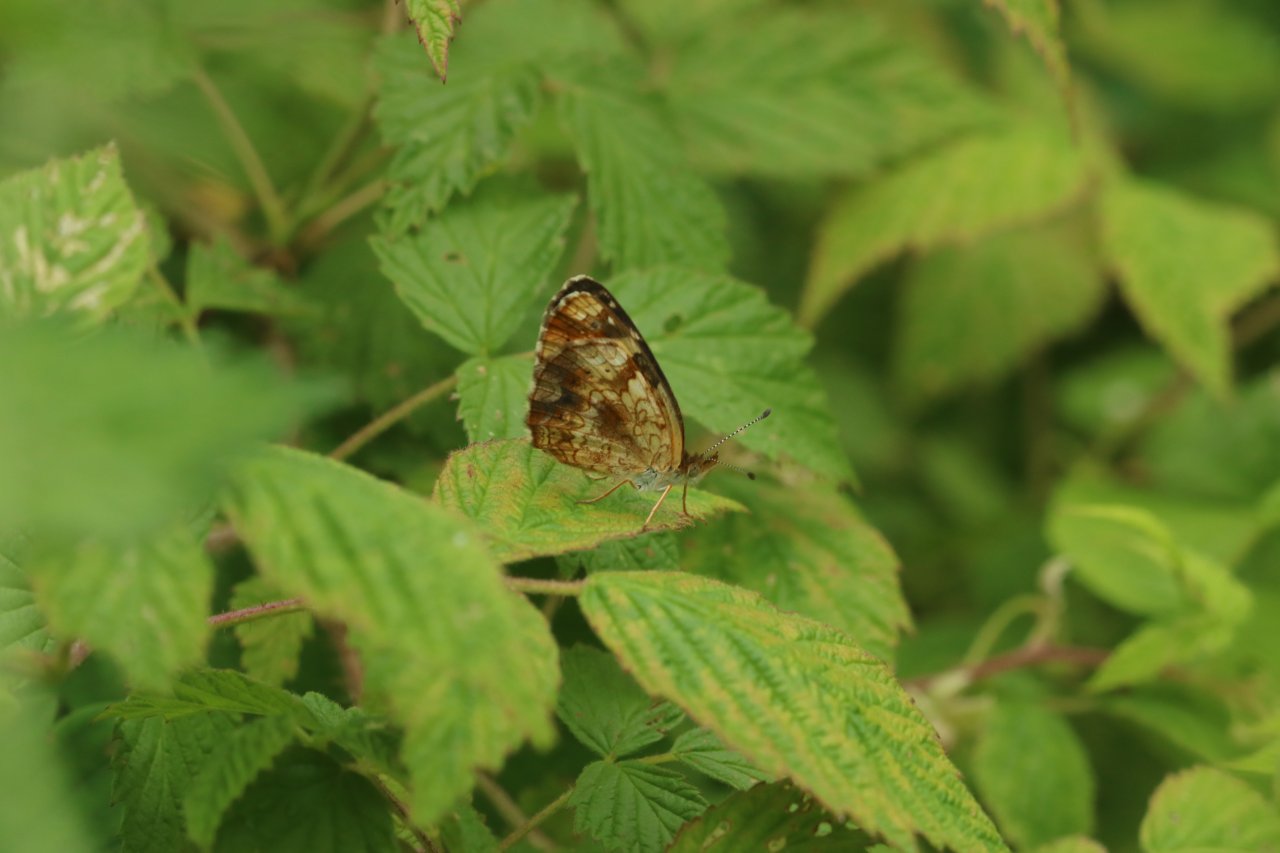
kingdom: Animalia
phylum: Arthropoda
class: Insecta
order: Lepidoptera
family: Nymphalidae
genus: Phyciodes
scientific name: Phyciodes tharos
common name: Northern Crescent
